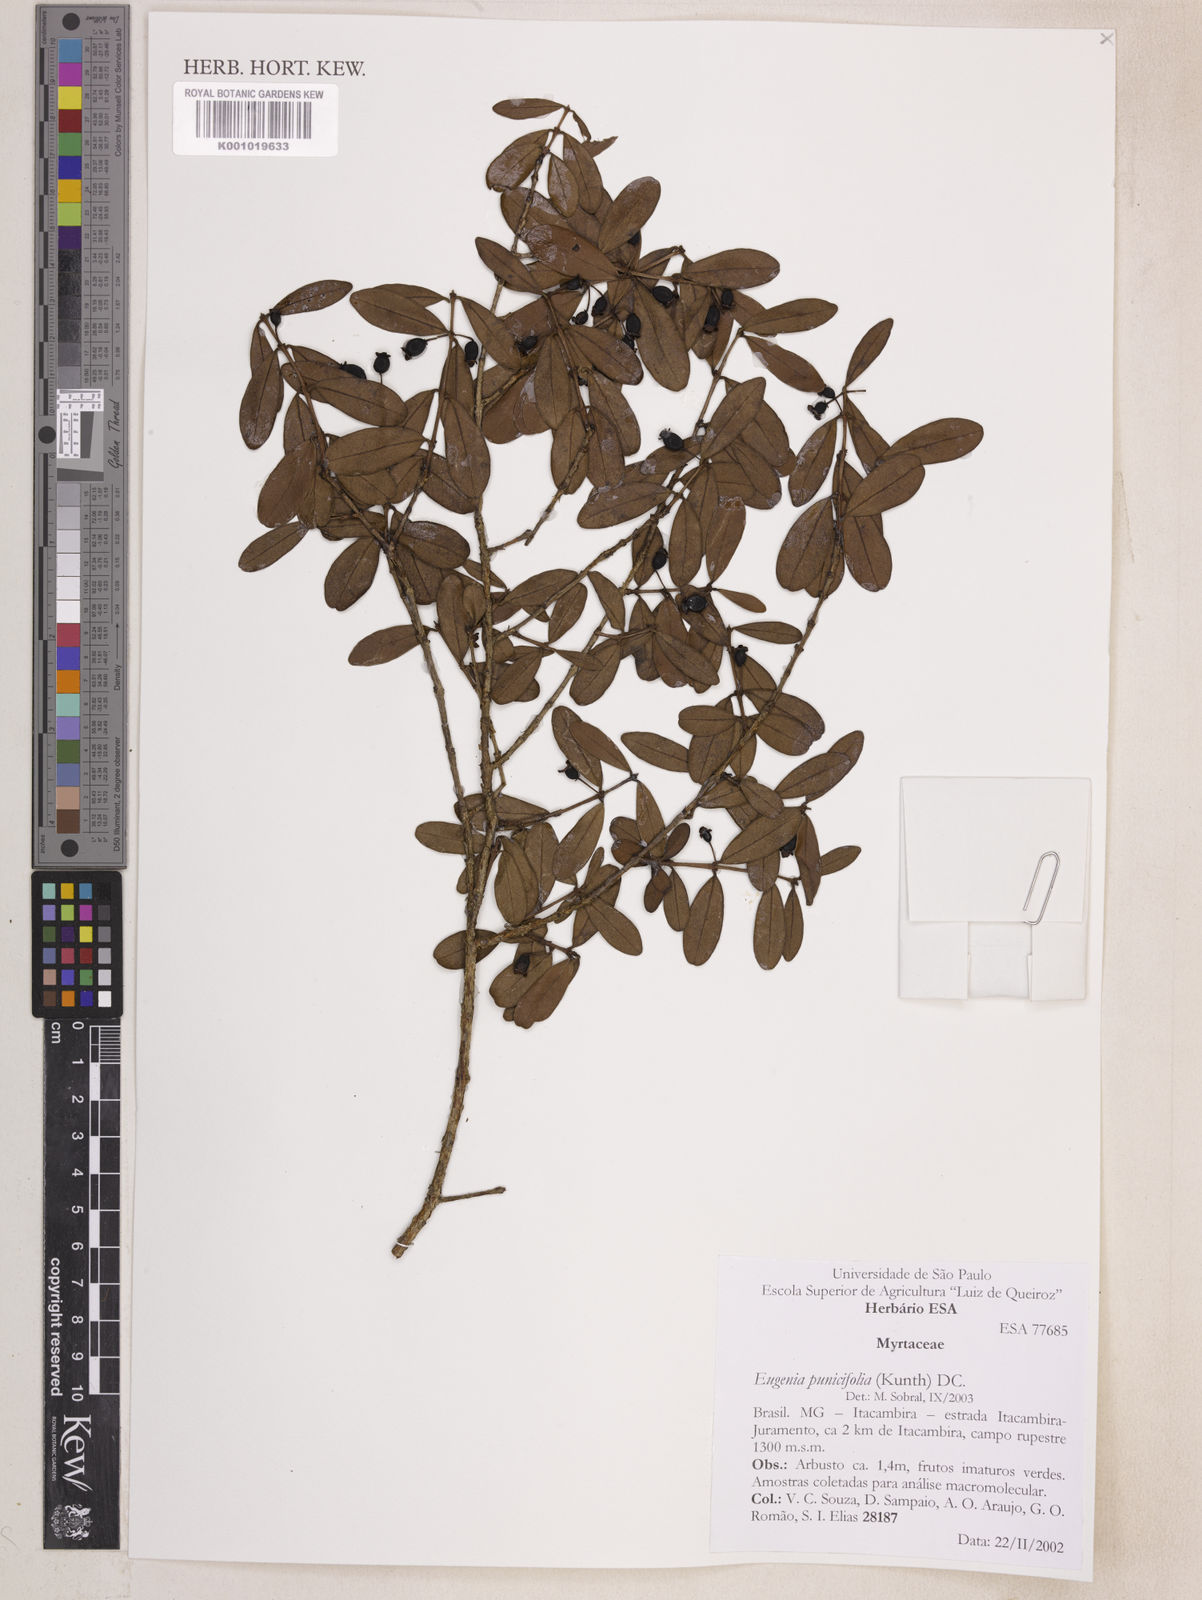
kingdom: Plantae
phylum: Tracheophyta
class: Magnoliopsida
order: Myrtales
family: Myrtaceae
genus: Eugenia
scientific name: Eugenia punicifolia
